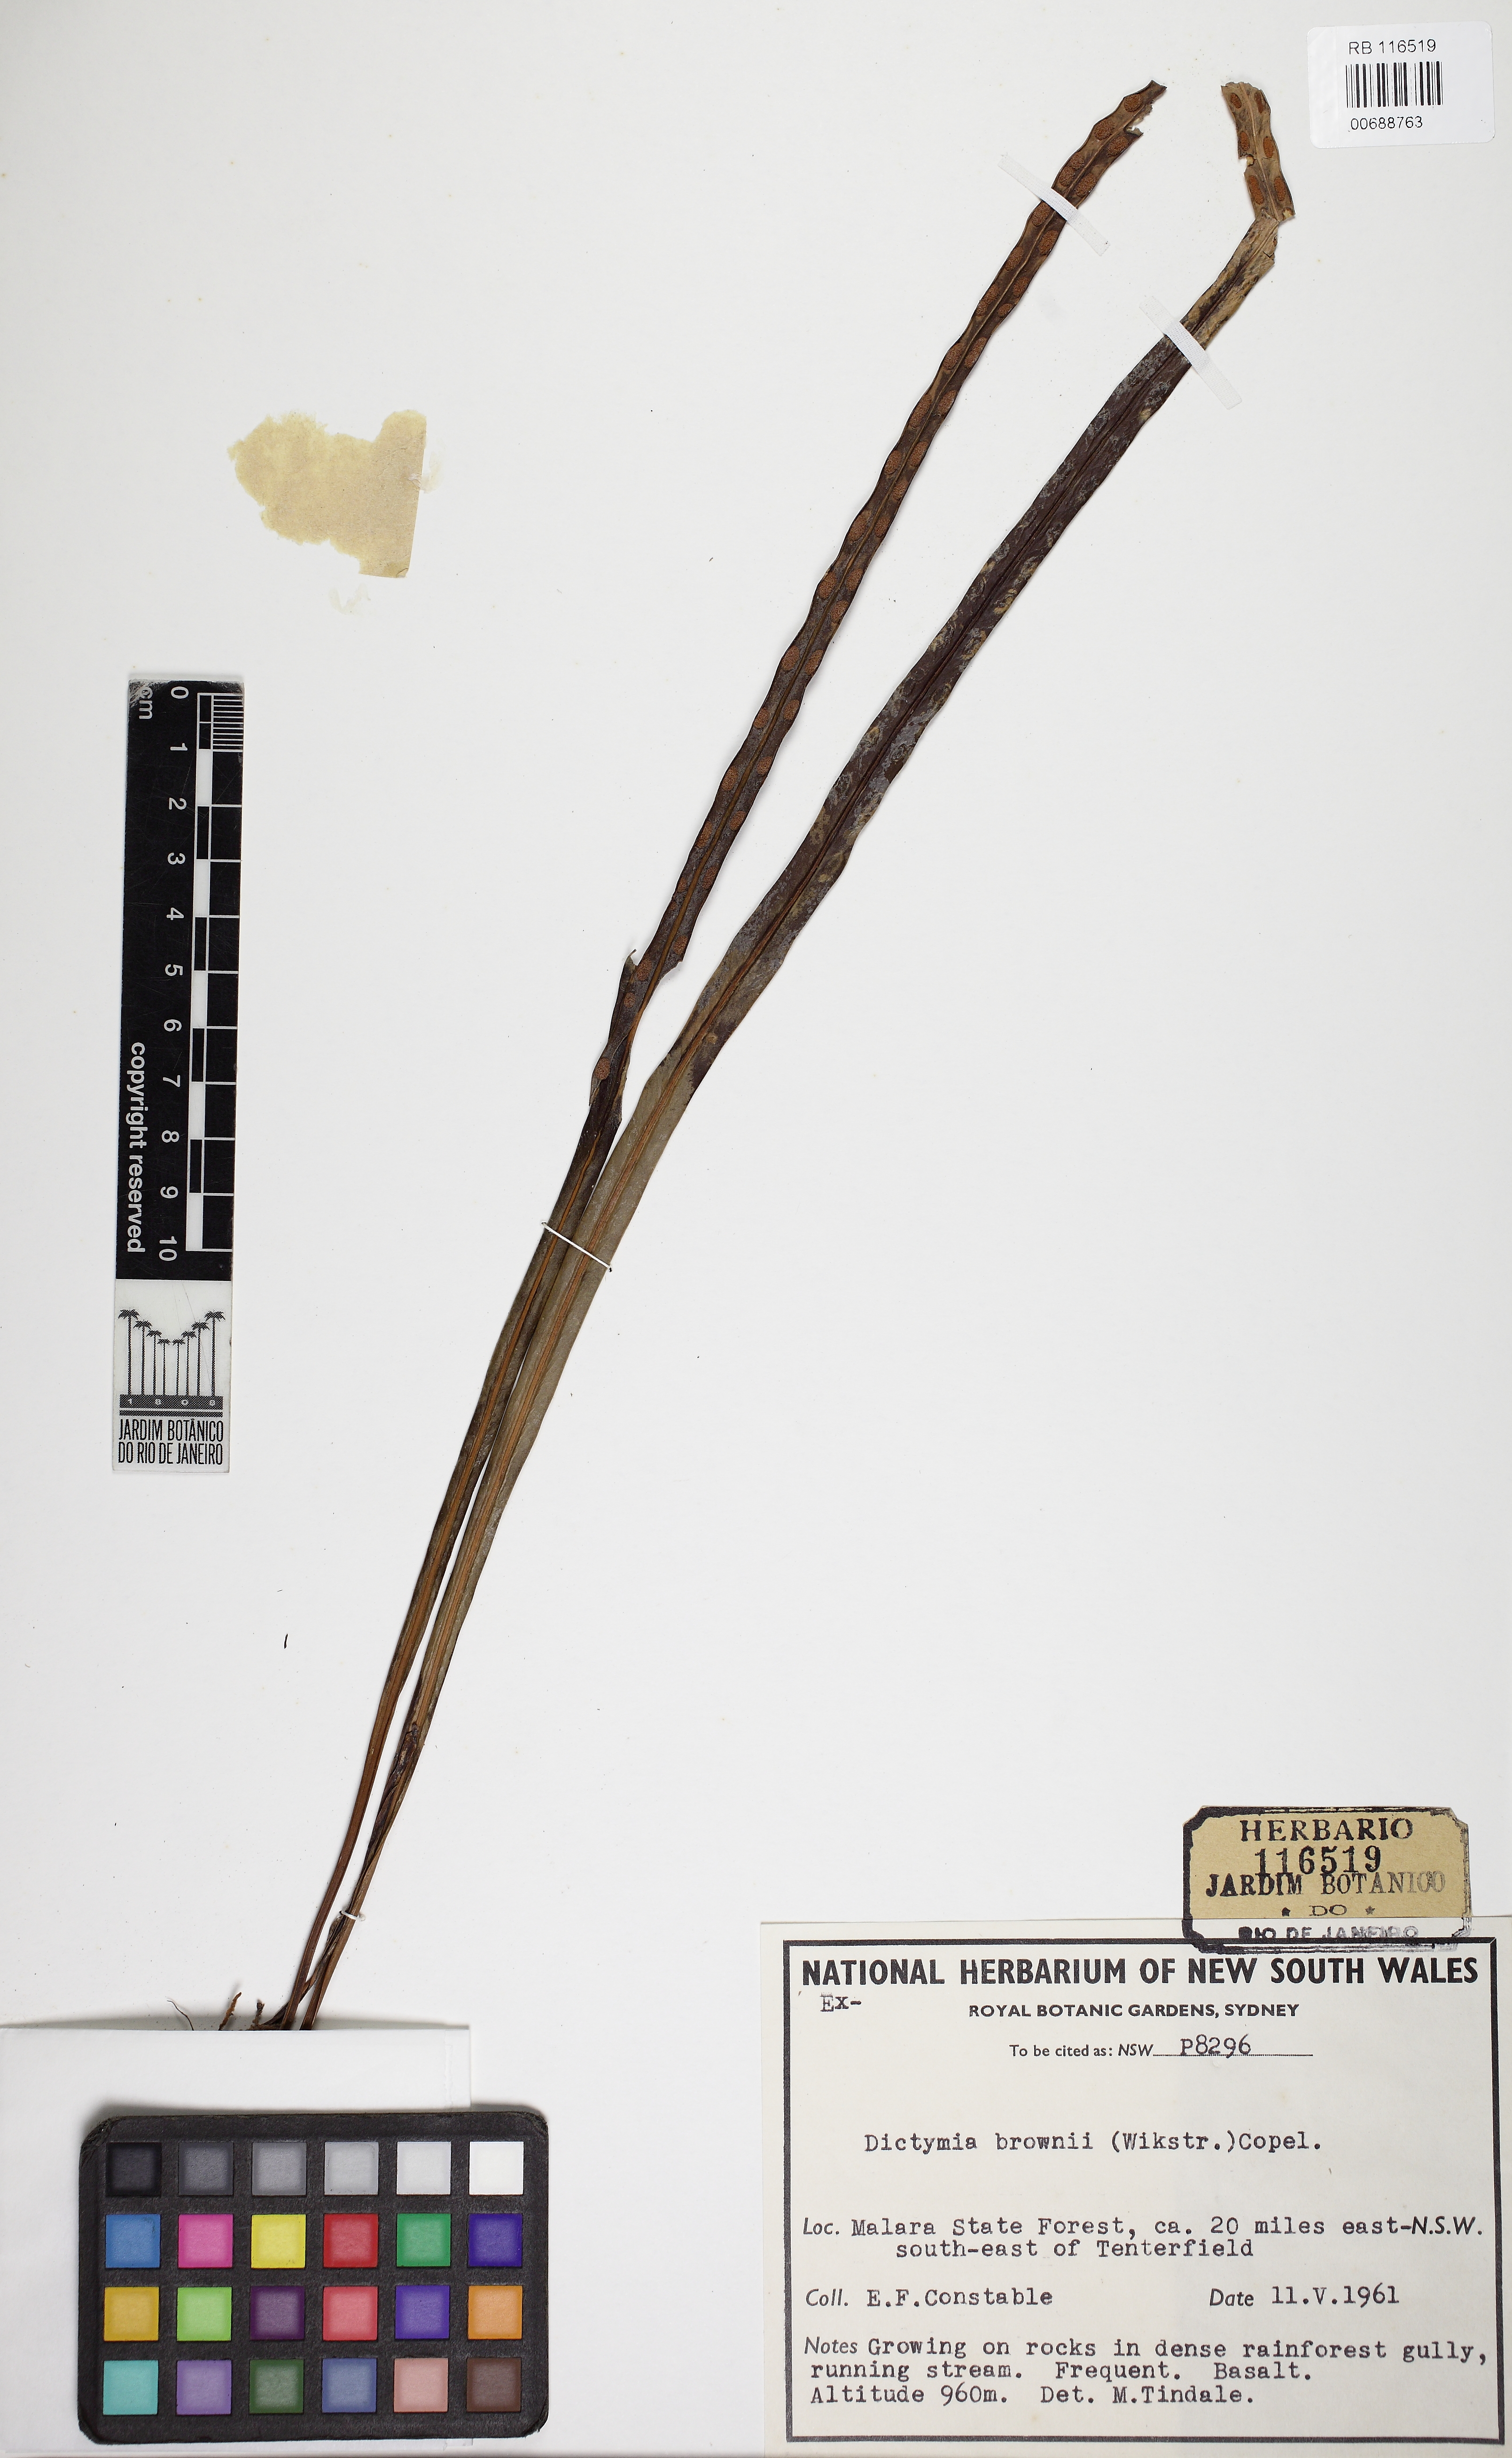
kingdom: Plantae
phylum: Tracheophyta
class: Polypodiopsida
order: Polypodiales
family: Polypodiaceae
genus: Dictymia
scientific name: Dictymia brownii
